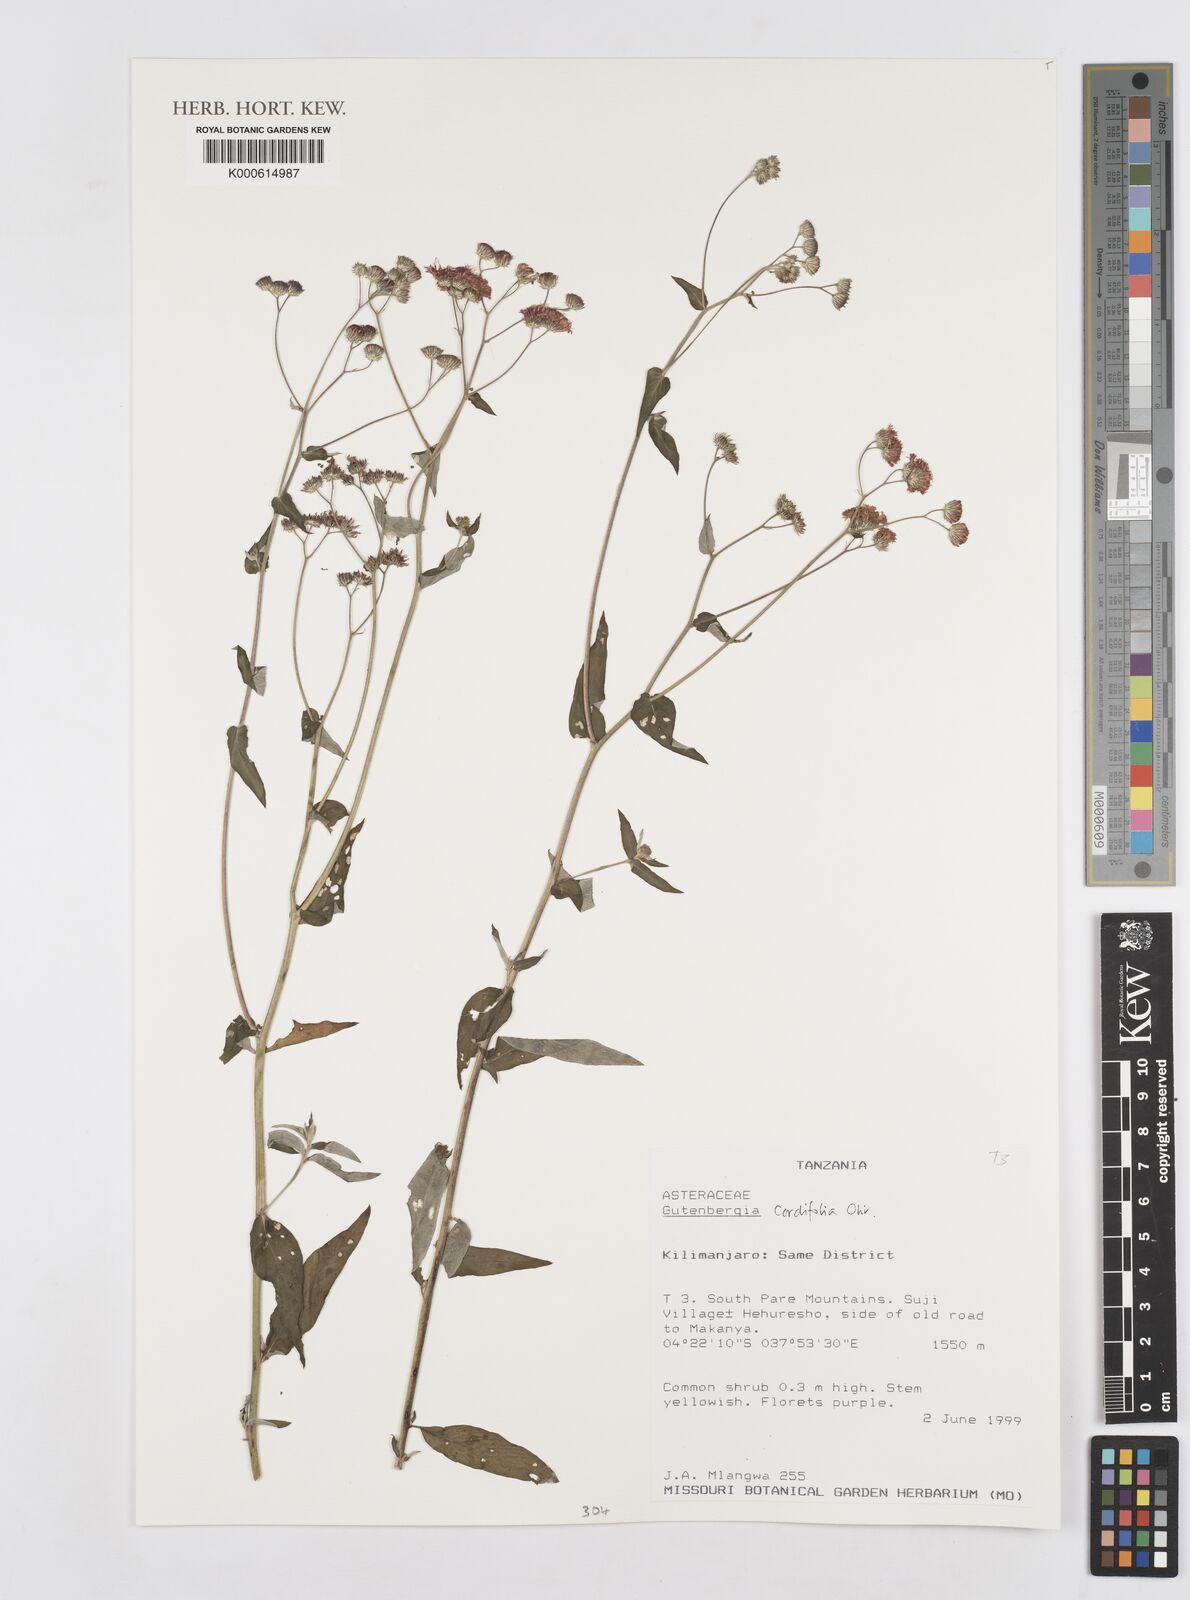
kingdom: Plantae
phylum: Tracheophyta
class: Magnoliopsida
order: Asterales
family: Asteraceae
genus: Gutenbergia
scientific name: Gutenbergia cordifolia
